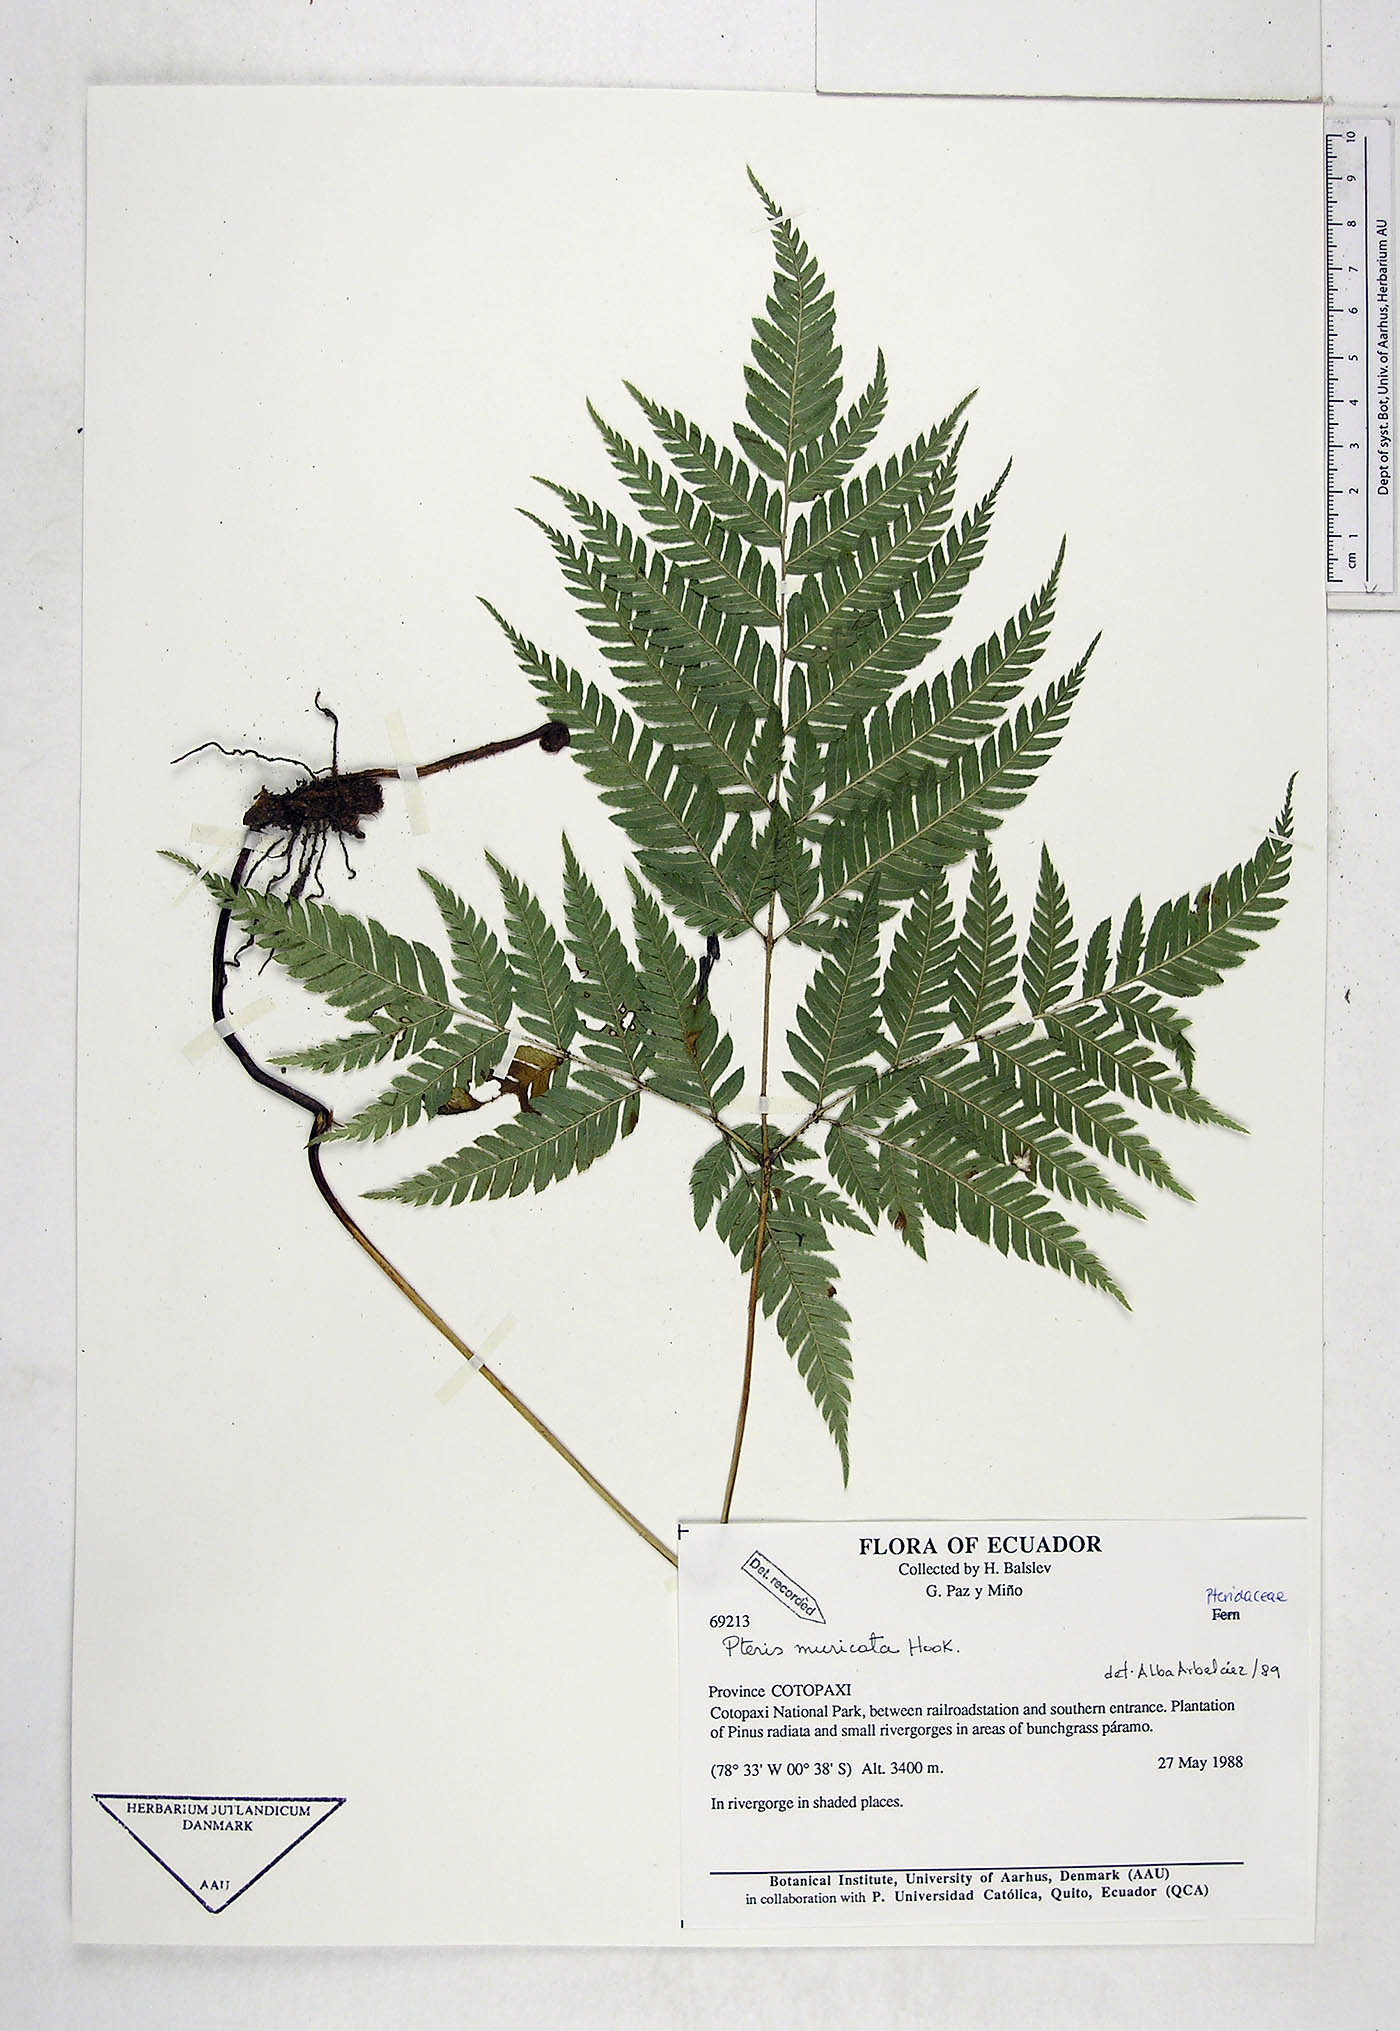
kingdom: Plantae
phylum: Tracheophyta
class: Polypodiopsida
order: Polypodiales
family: Pteridaceae
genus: Pteris
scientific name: Pteris muricata
